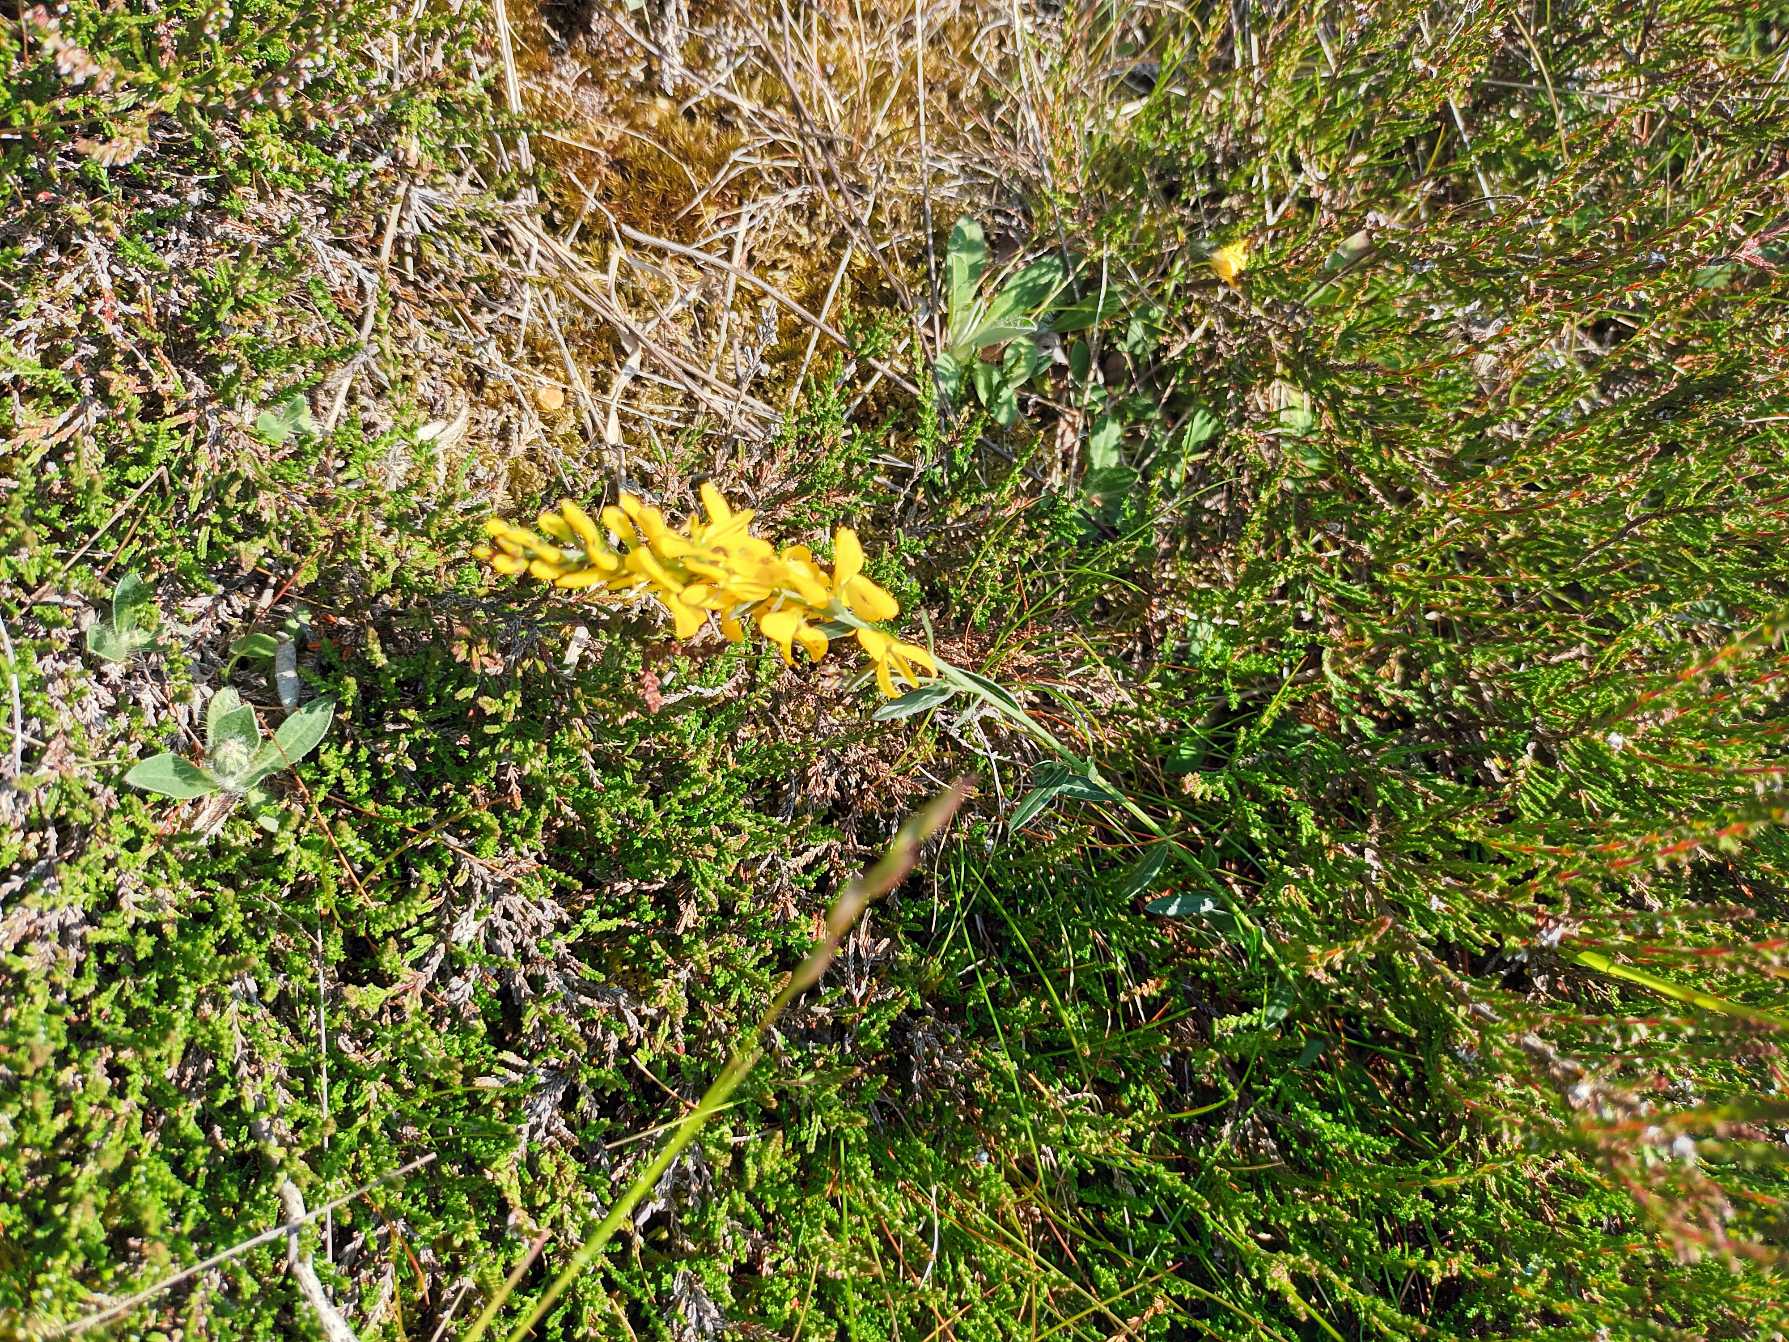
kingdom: Plantae
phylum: Tracheophyta
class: Magnoliopsida
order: Fabales
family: Fabaceae
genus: Genista
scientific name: Genista tinctoria
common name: Farve-visse
